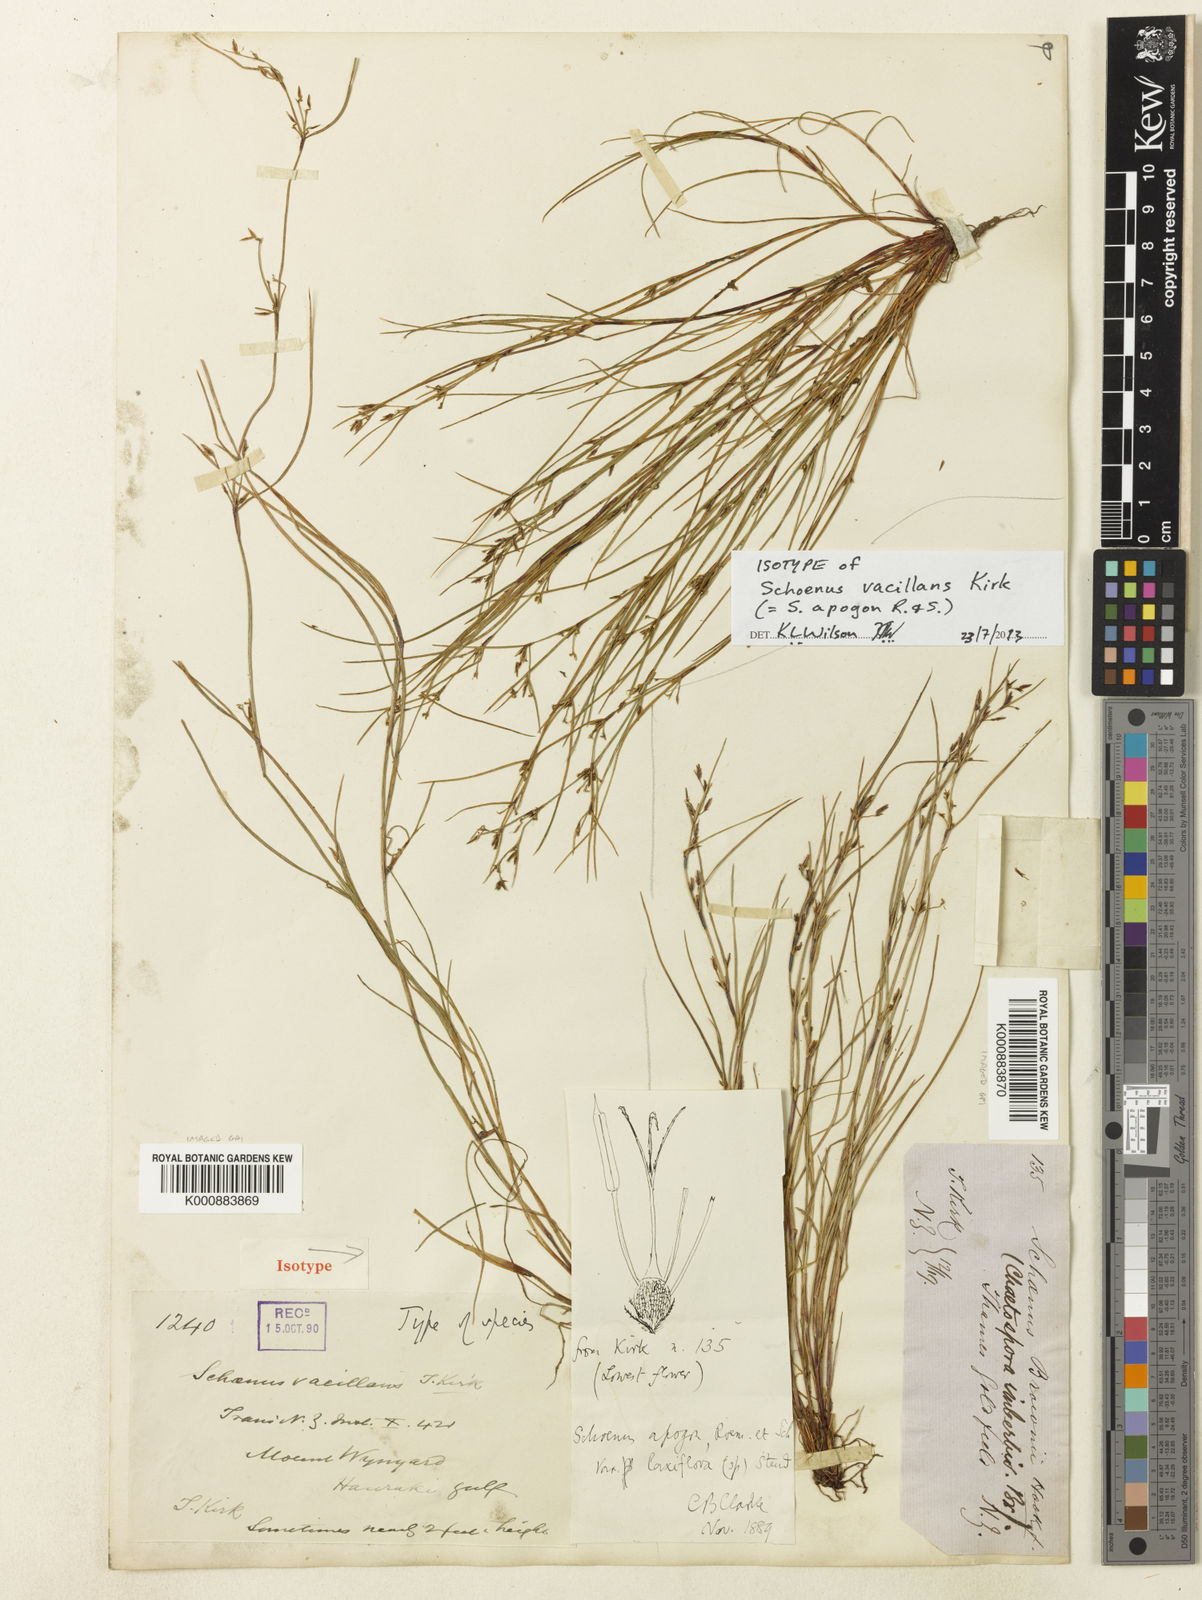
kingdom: Plantae
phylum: Tracheophyta
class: Liliopsida
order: Poales
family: Cyperaceae
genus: Schoenus
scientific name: Schoenus apogon
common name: Smooth bogrush
